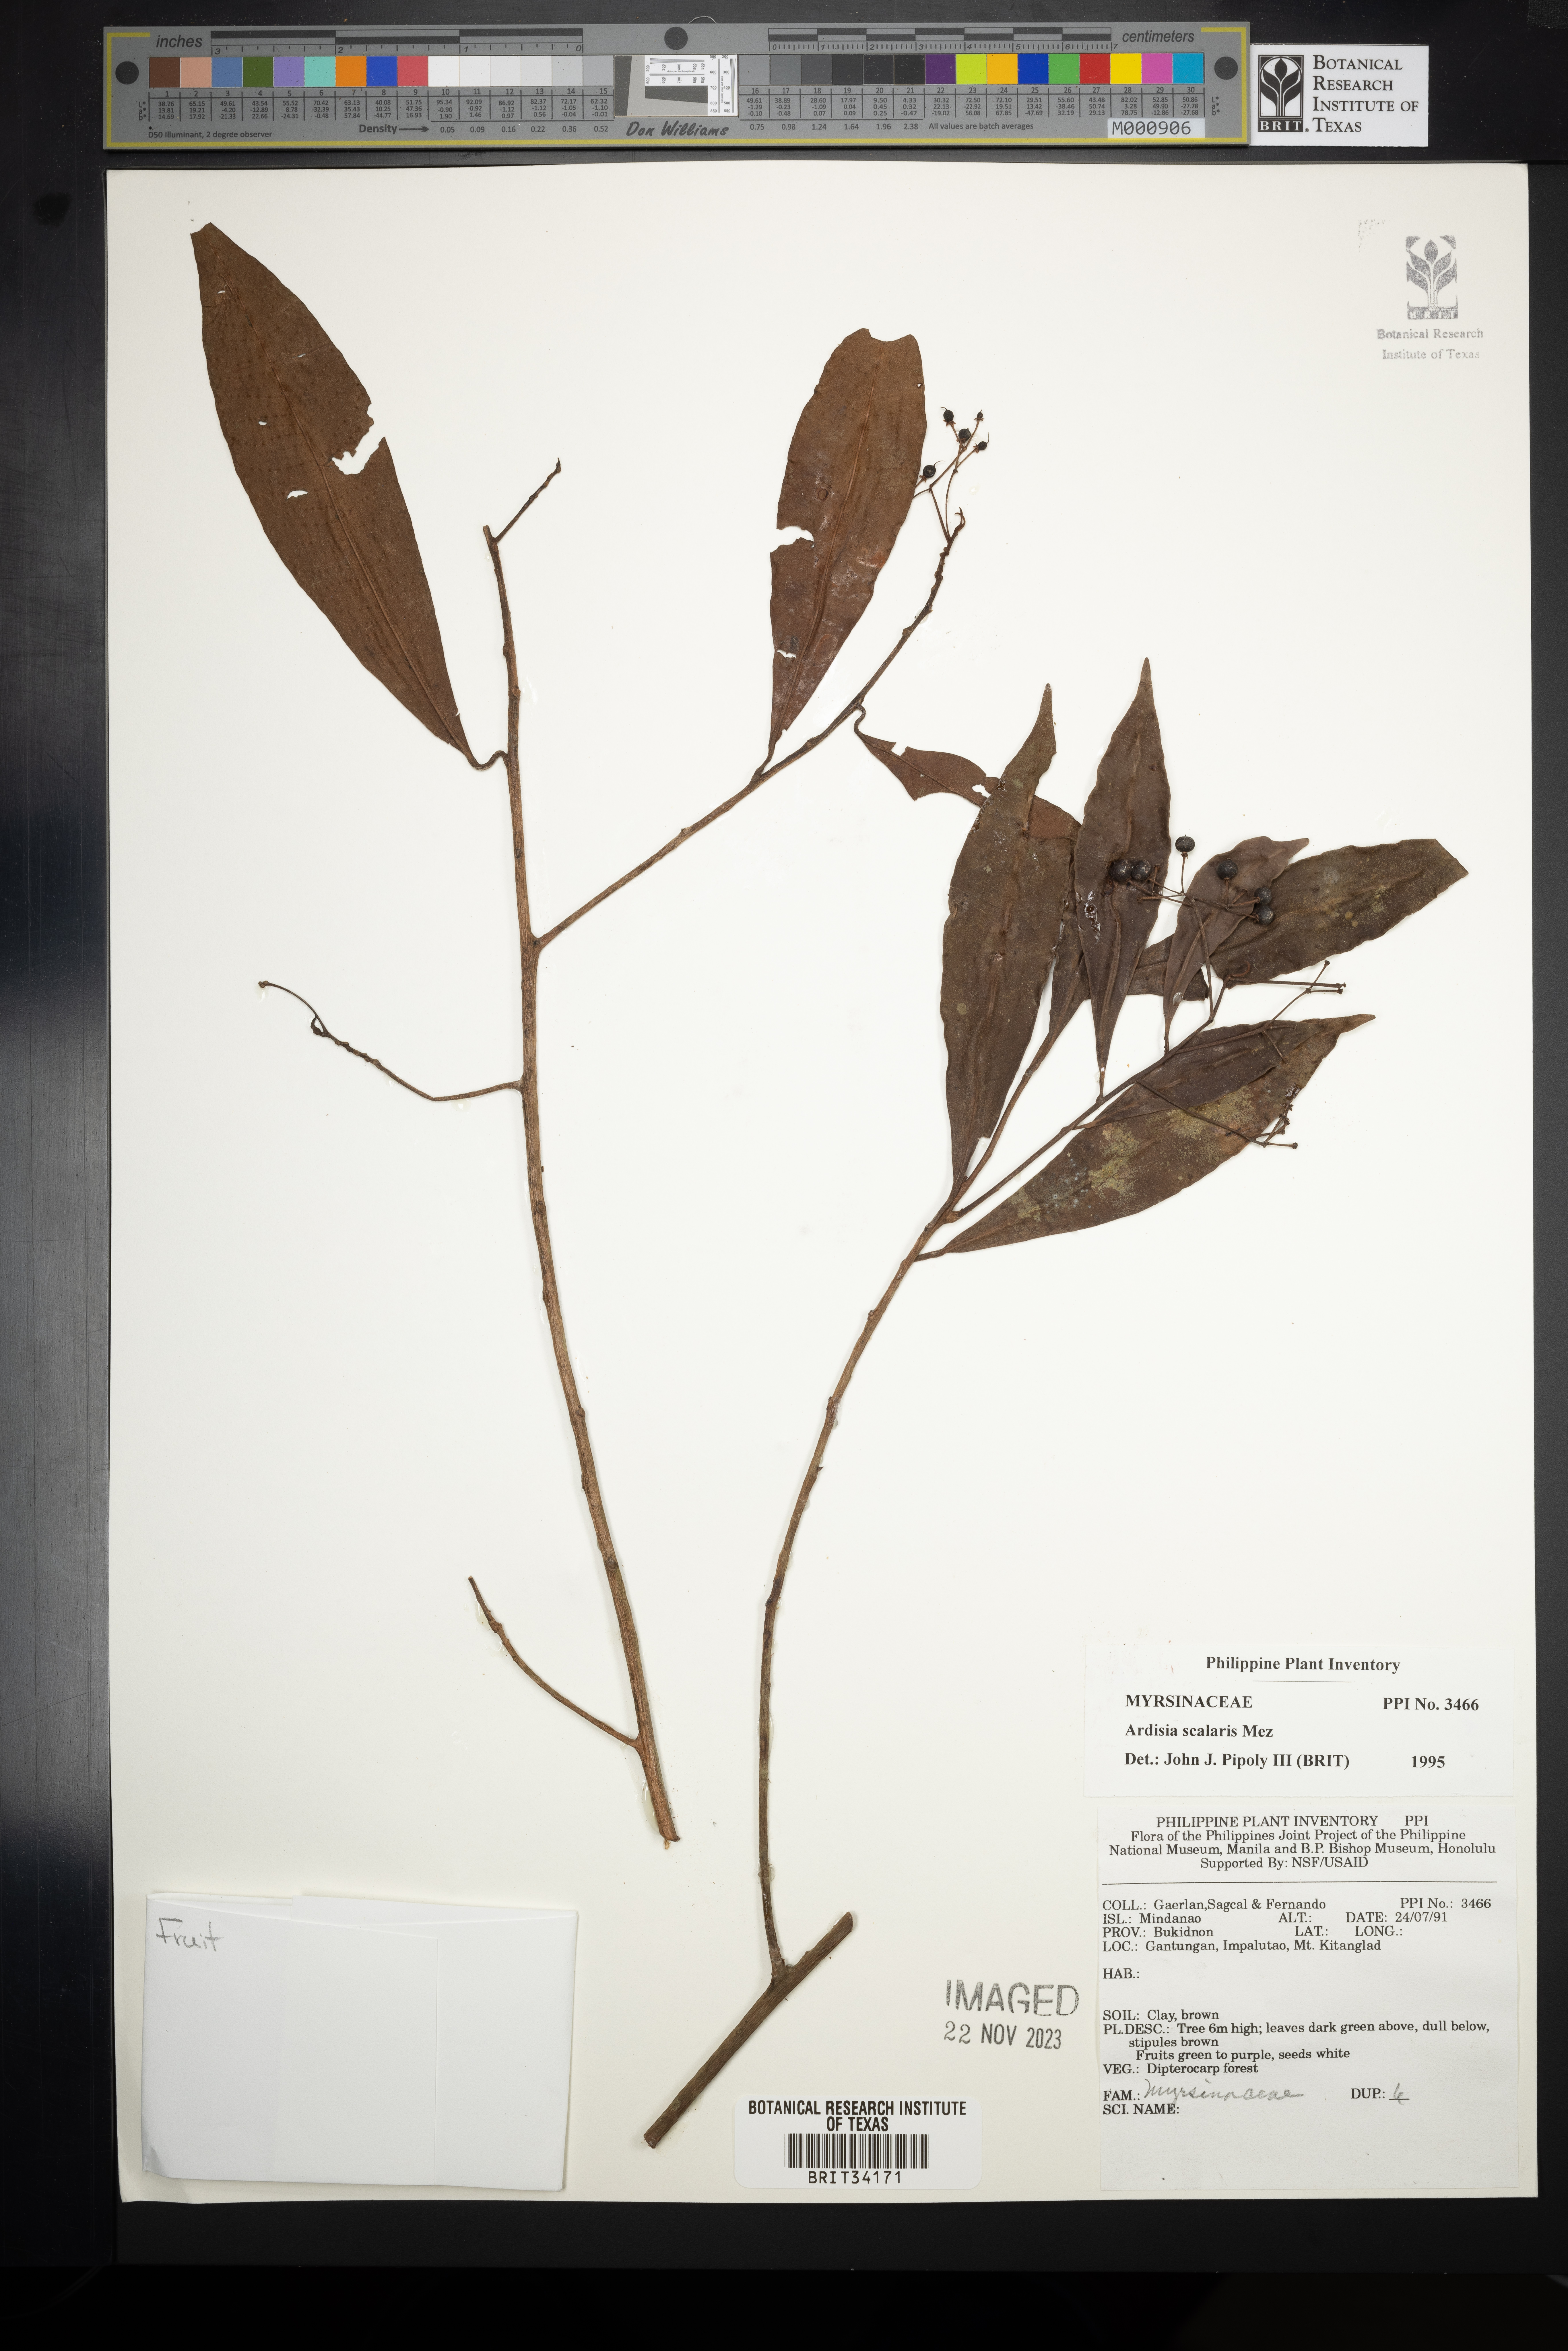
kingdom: Plantae
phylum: Tracheophyta
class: Magnoliopsida
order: Ericales
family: Primulaceae
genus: Ardisia
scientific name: Ardisia scalaris
